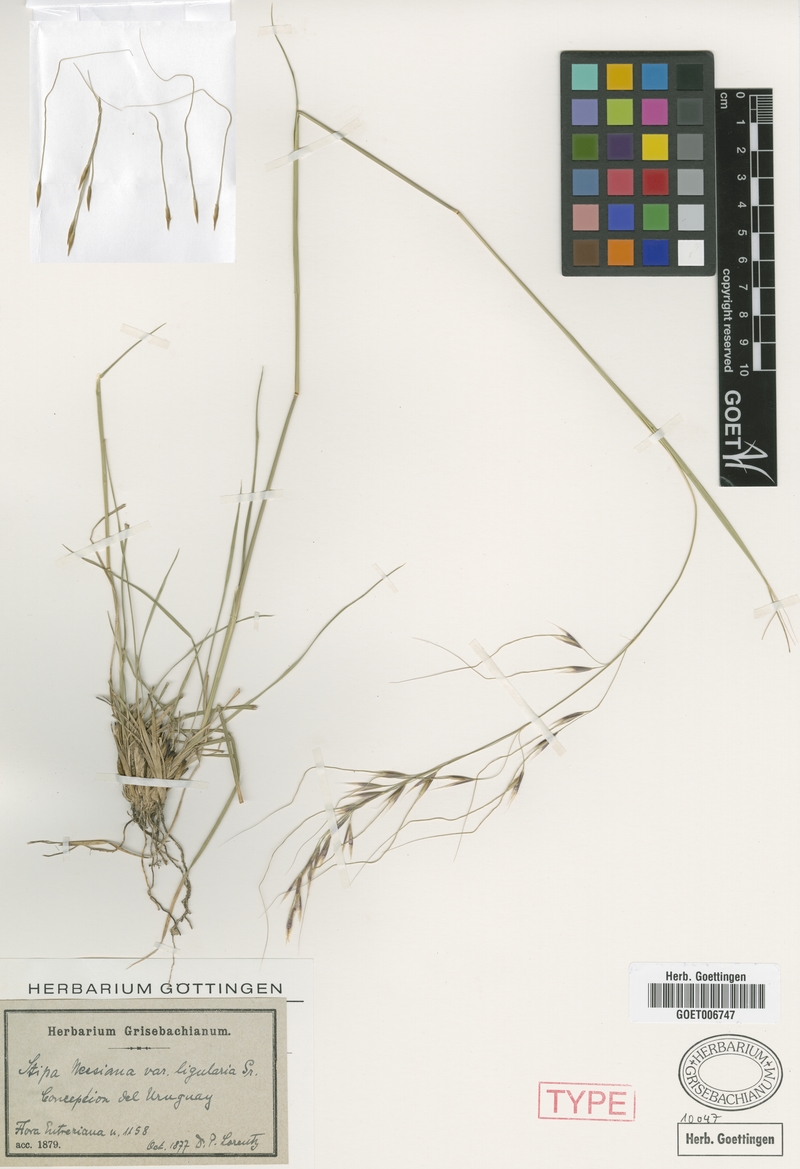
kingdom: Plantae
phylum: Tracheophyta
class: Liliopsida
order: Poales
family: Poaceae
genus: Nassella
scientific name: Nassella neesiana
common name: American needle-grass
